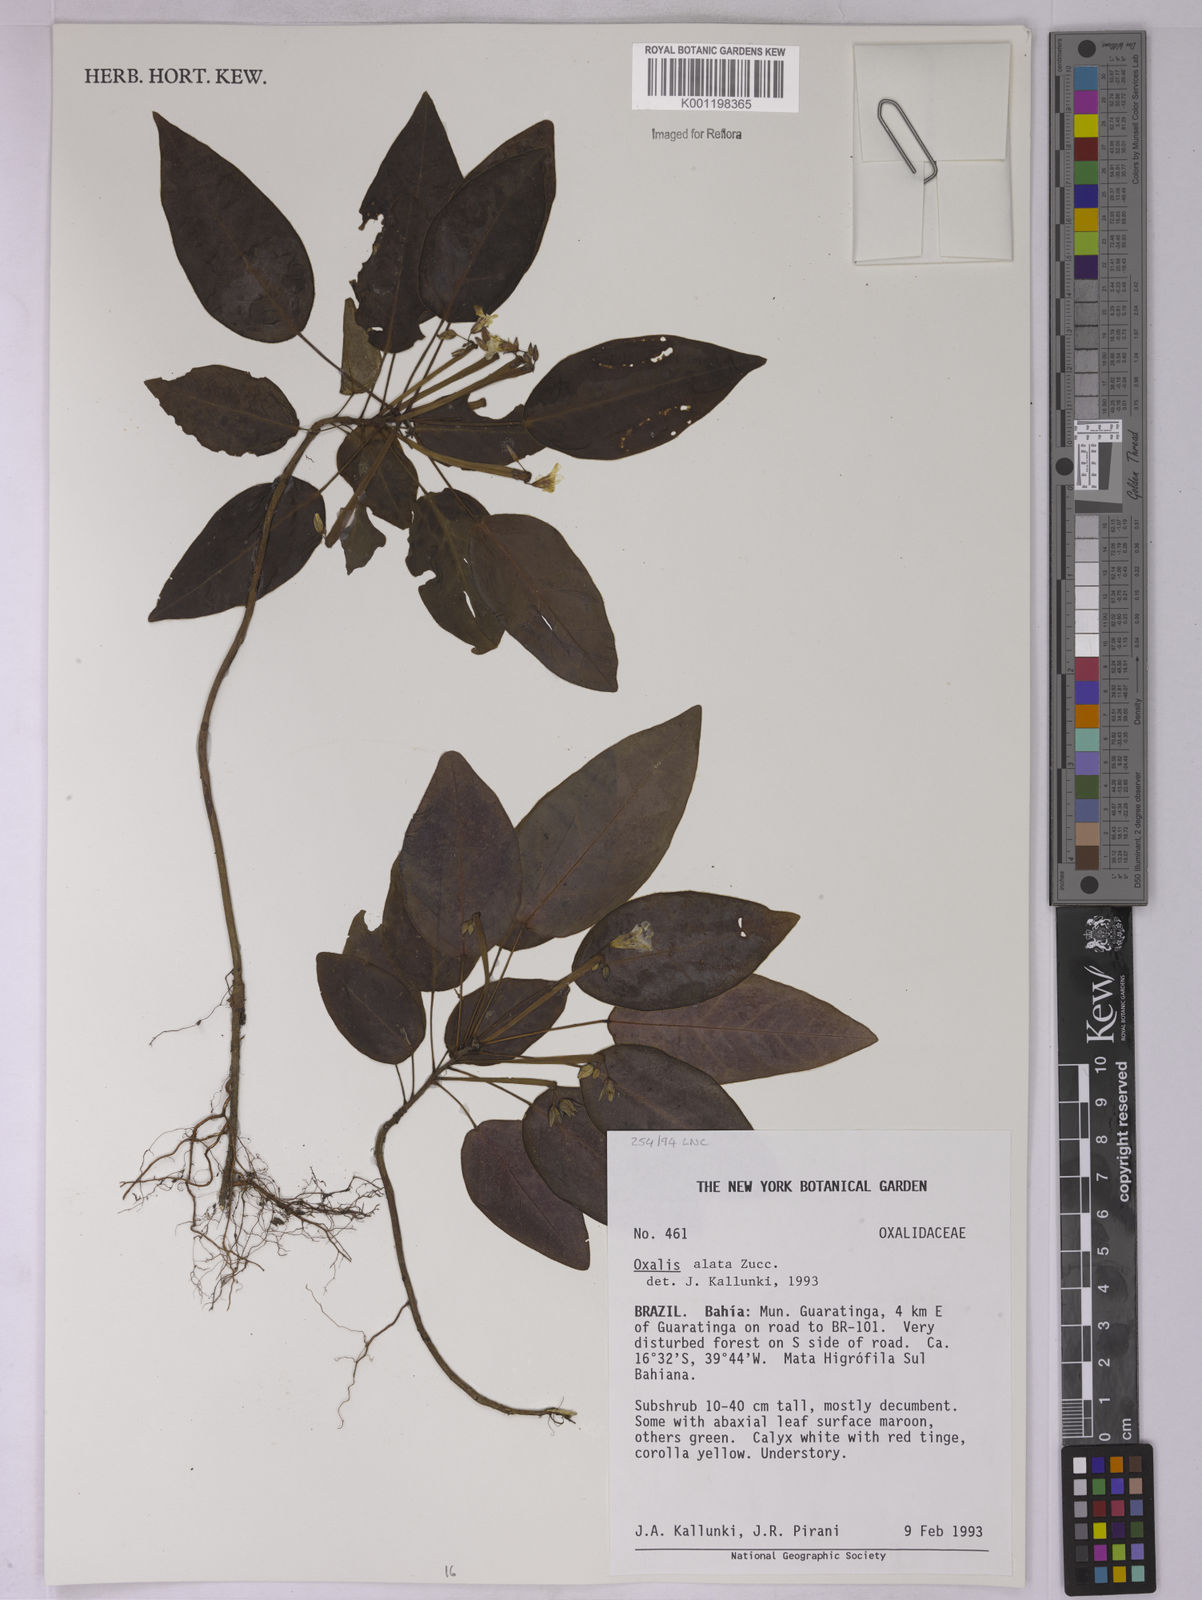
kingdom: Plantae
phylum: Tracheophyta
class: Magnoliopsida
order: Oxalidales
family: Oxalidaceae
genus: Oxalis
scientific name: Oxalis alata
